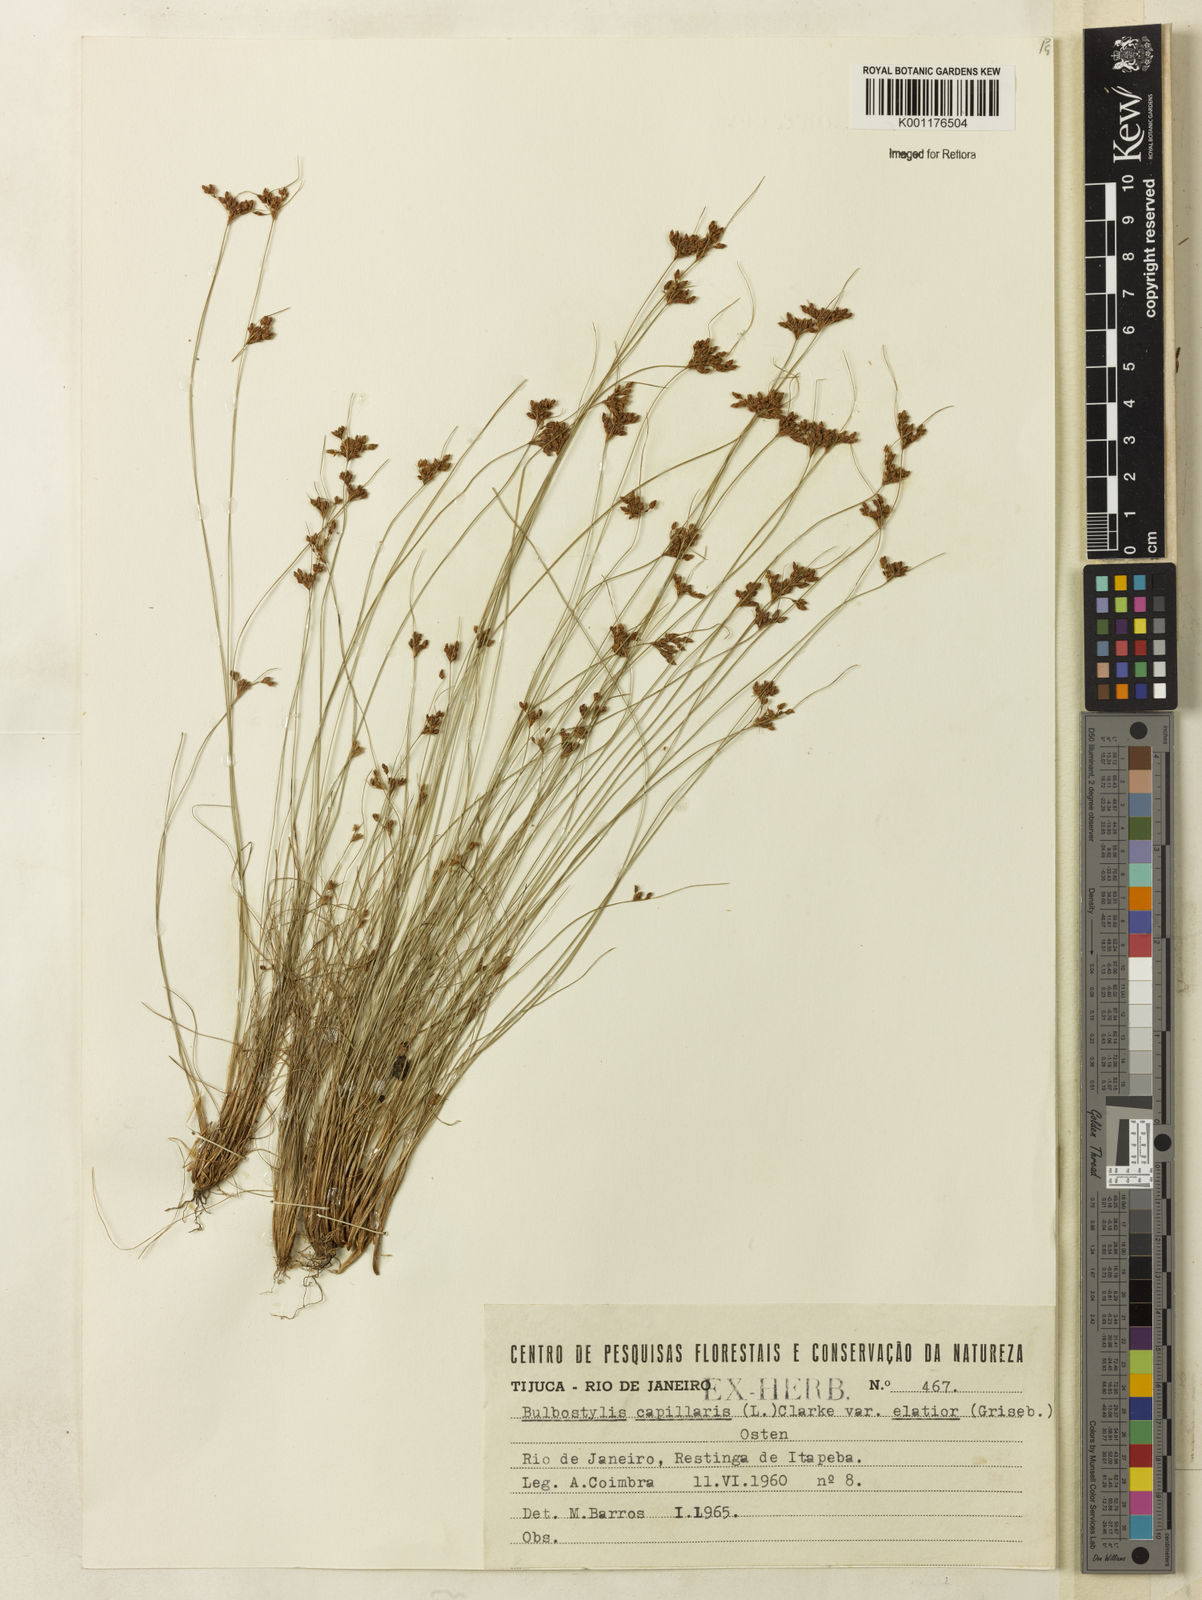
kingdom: Plantae
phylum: Tracheophyta
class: Liliopsida
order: Poales
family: Cyperaceae
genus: Bulbostylis
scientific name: Bulbostylis communis
